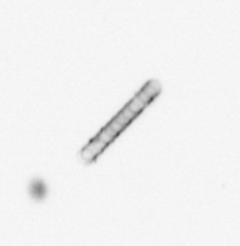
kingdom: Chromista
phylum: Ochrophyta
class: Bacillariophyceae
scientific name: Bacillariophyceae
